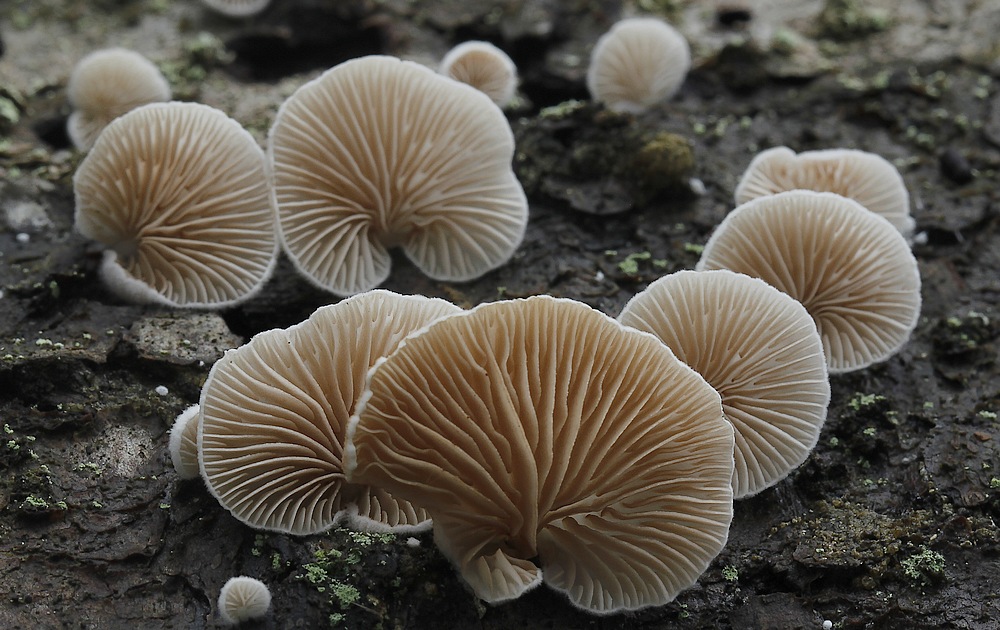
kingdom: Fungi
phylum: Basidiomycota
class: Agaricomycetes
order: Agaricales
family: Crepidotaceae
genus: Crepidotus
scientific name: Crepidotus applanatus
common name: tvefarvet muslingesvamp
